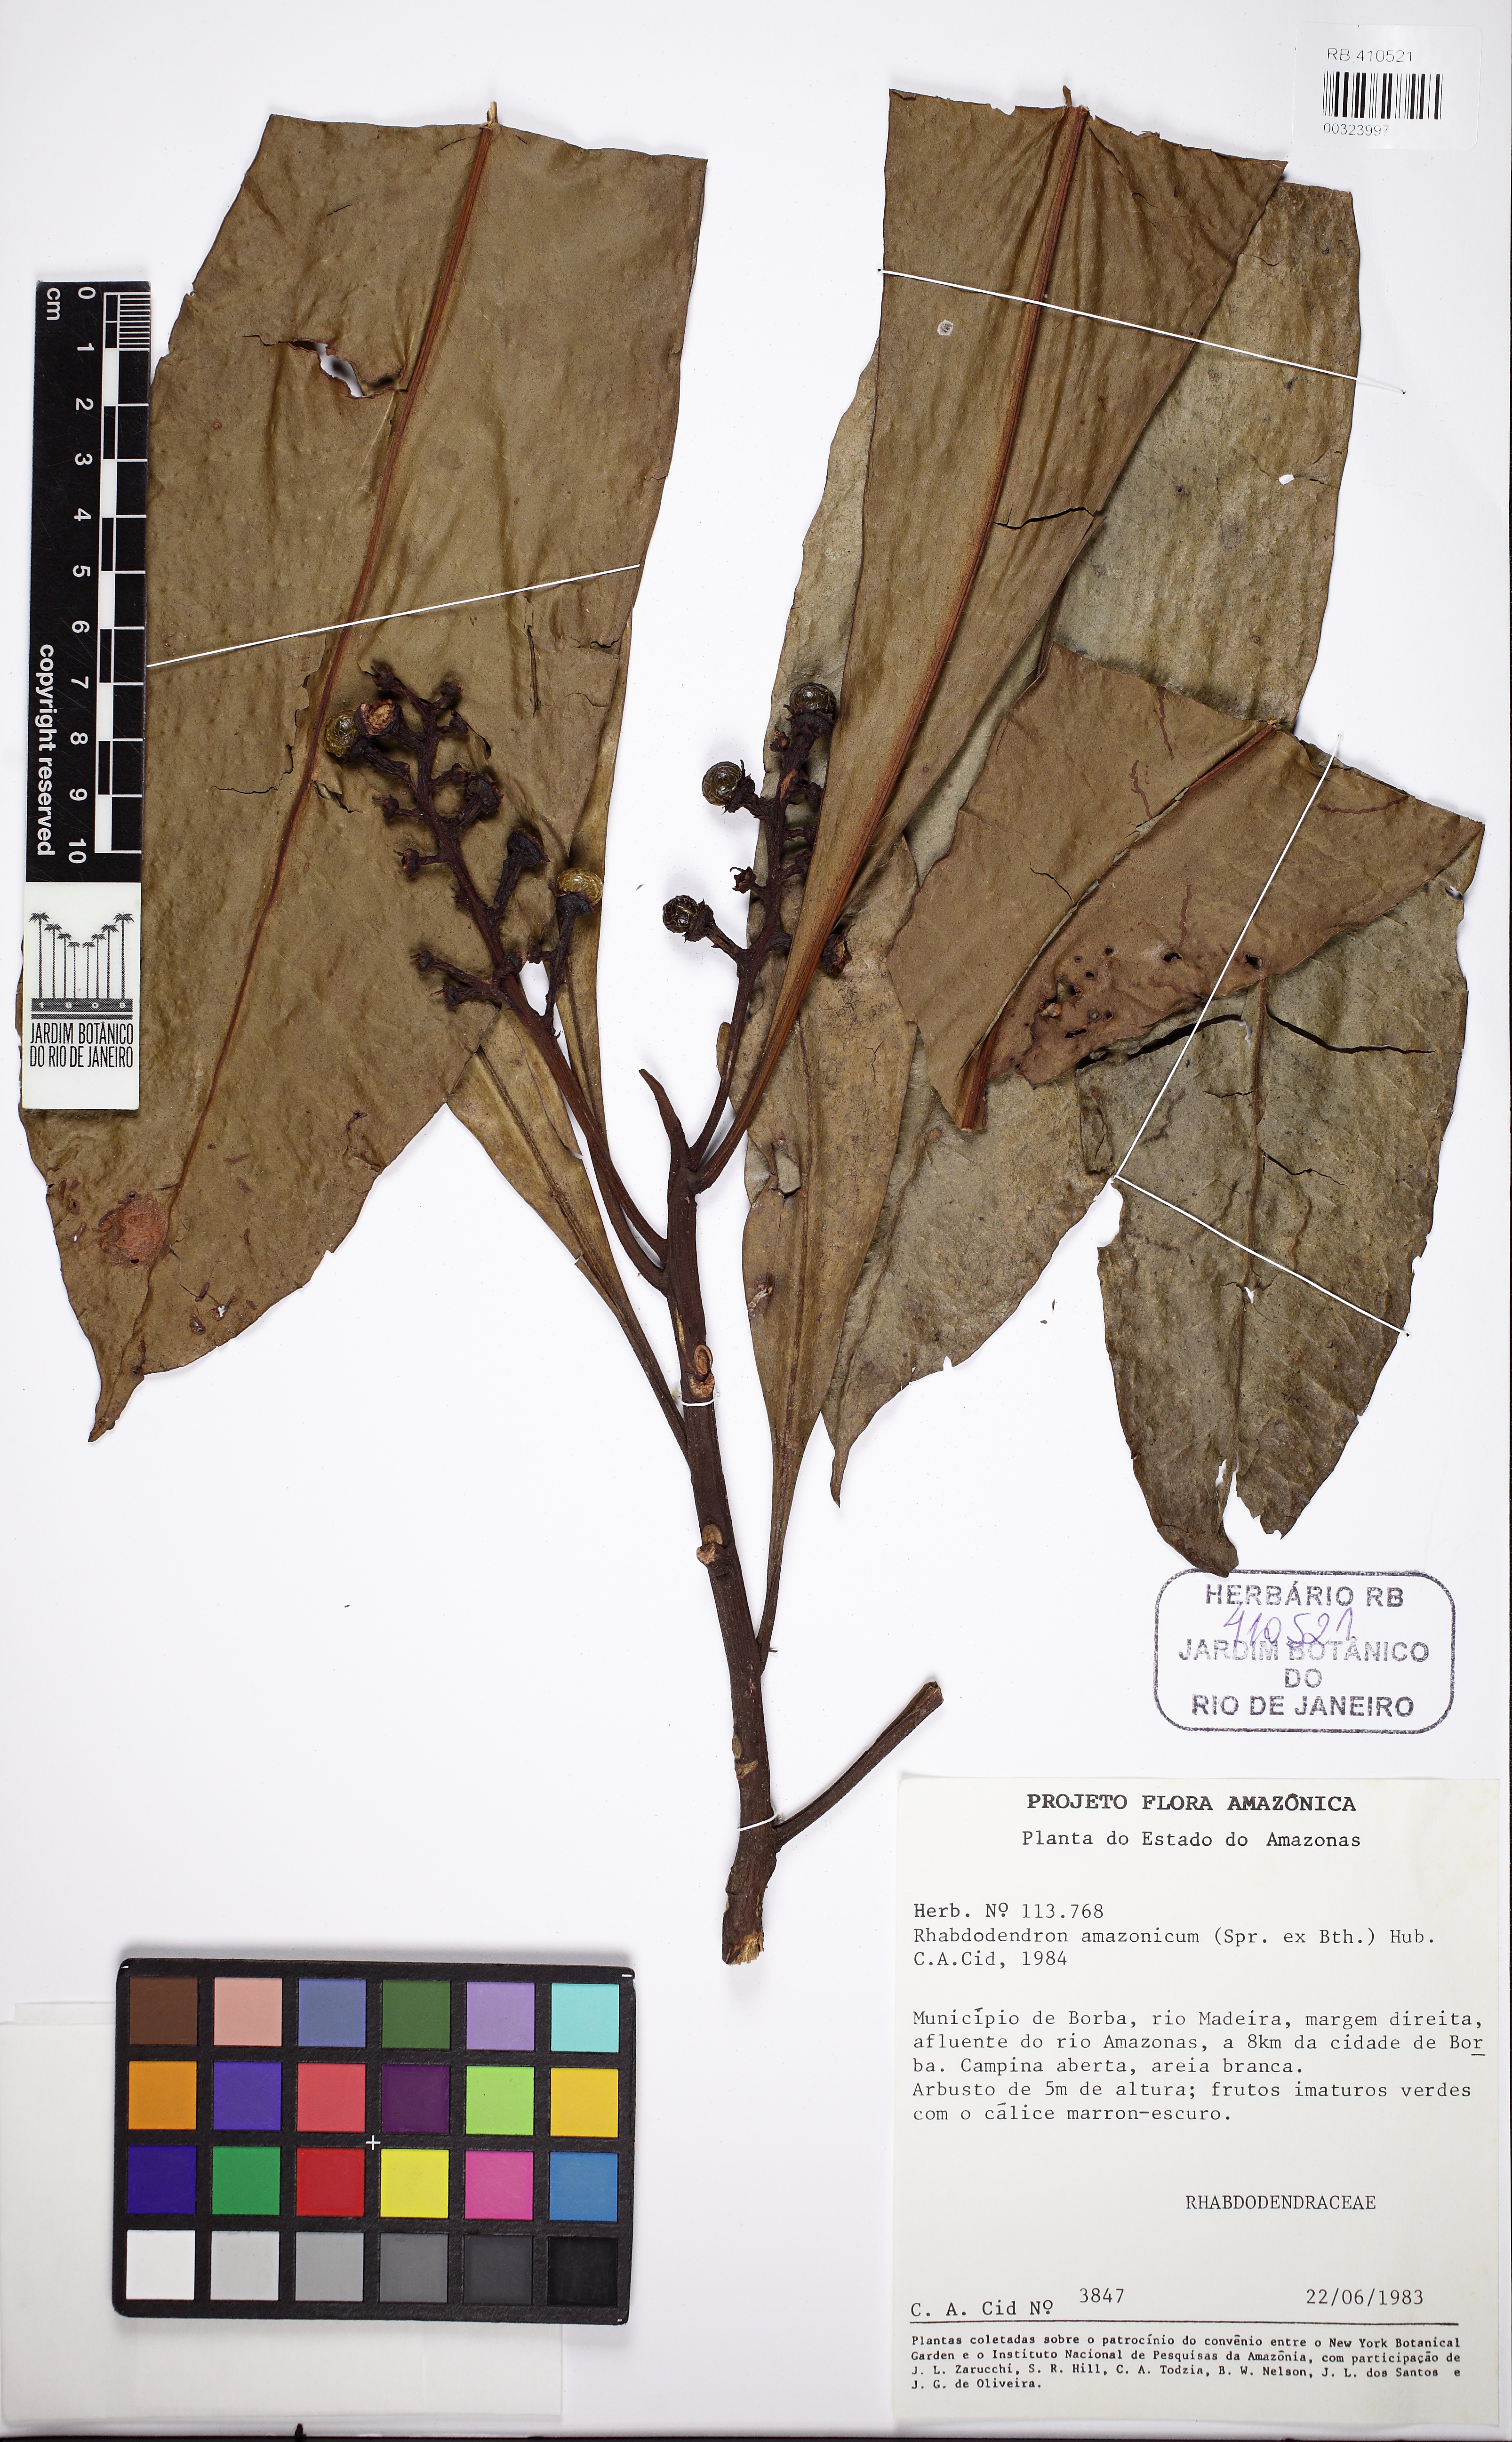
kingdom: Plantae
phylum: Tracheophyta
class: Magnoliopsida
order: Caryophyllales
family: Rhabdodendraceae
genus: Rhabdodendron
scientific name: Rhabdodendron amazonicum
